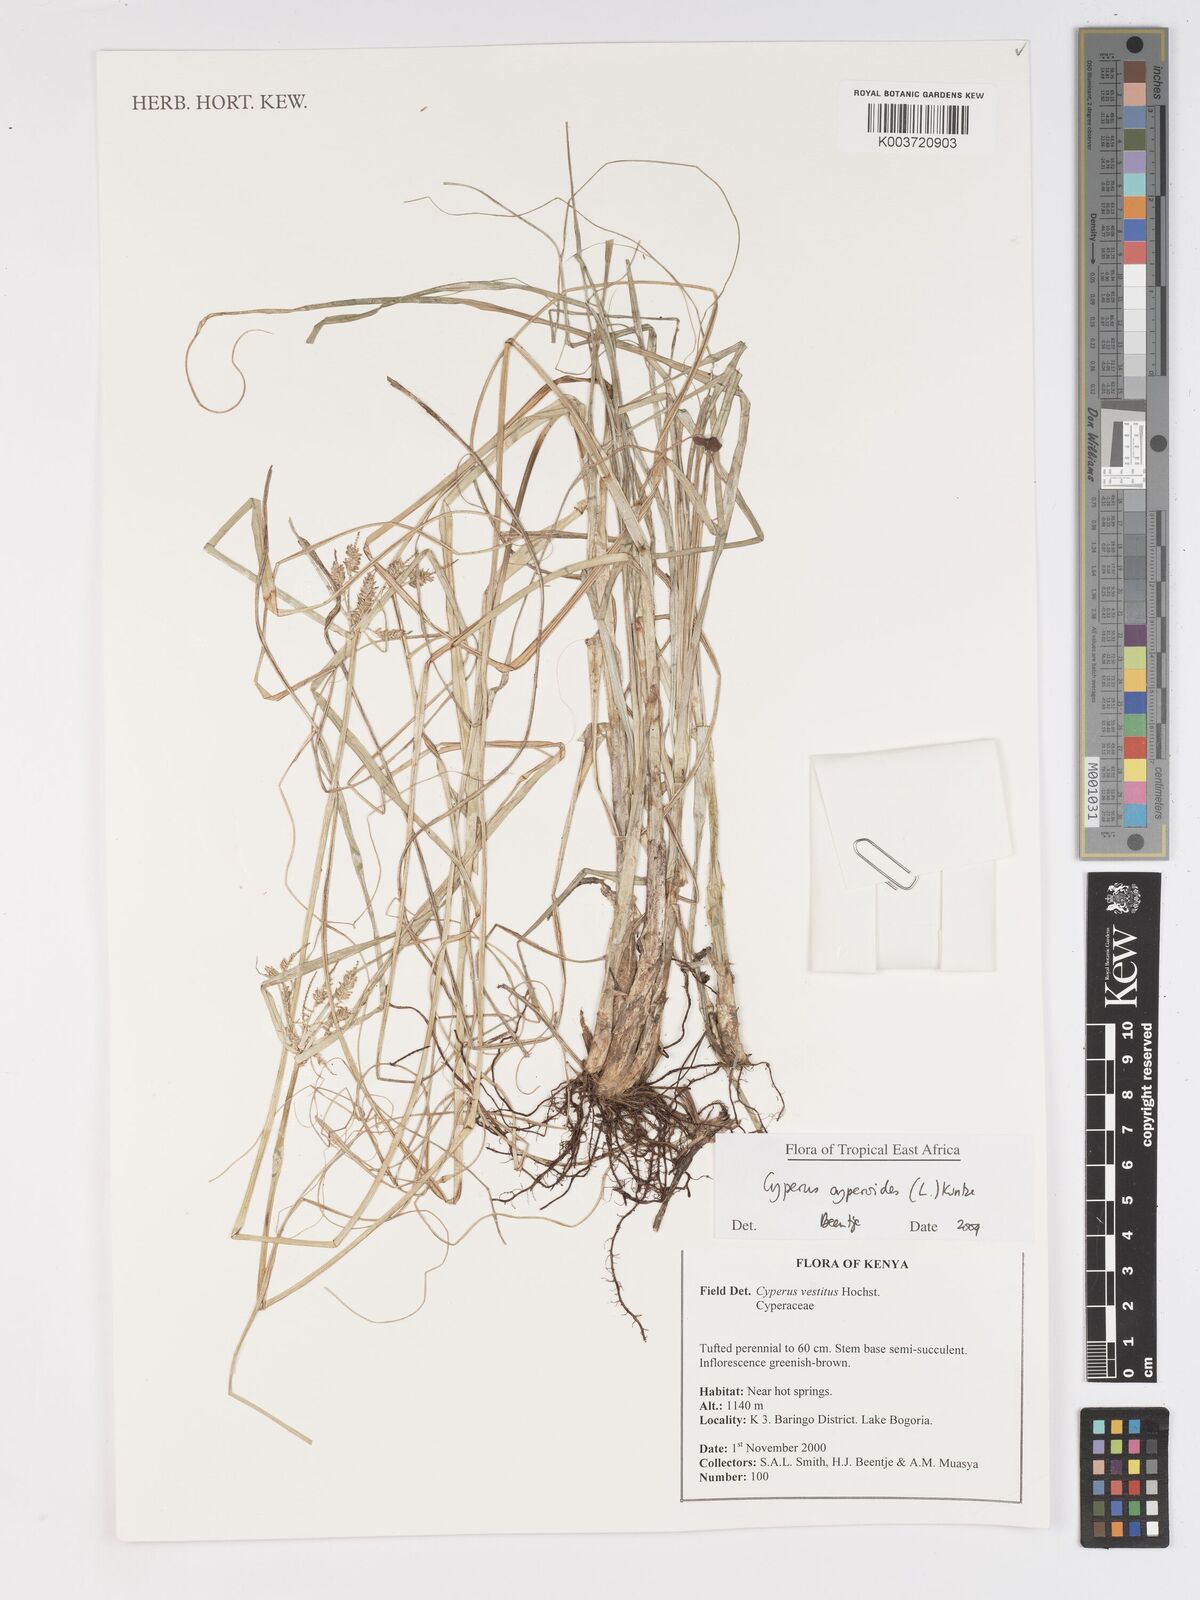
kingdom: Plantae
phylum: Tracheophyta
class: Liliopsida
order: Poales
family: Cyperaceae
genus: Cyperus
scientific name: Cyperus cyperoides
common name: Pacific island flat sedge
